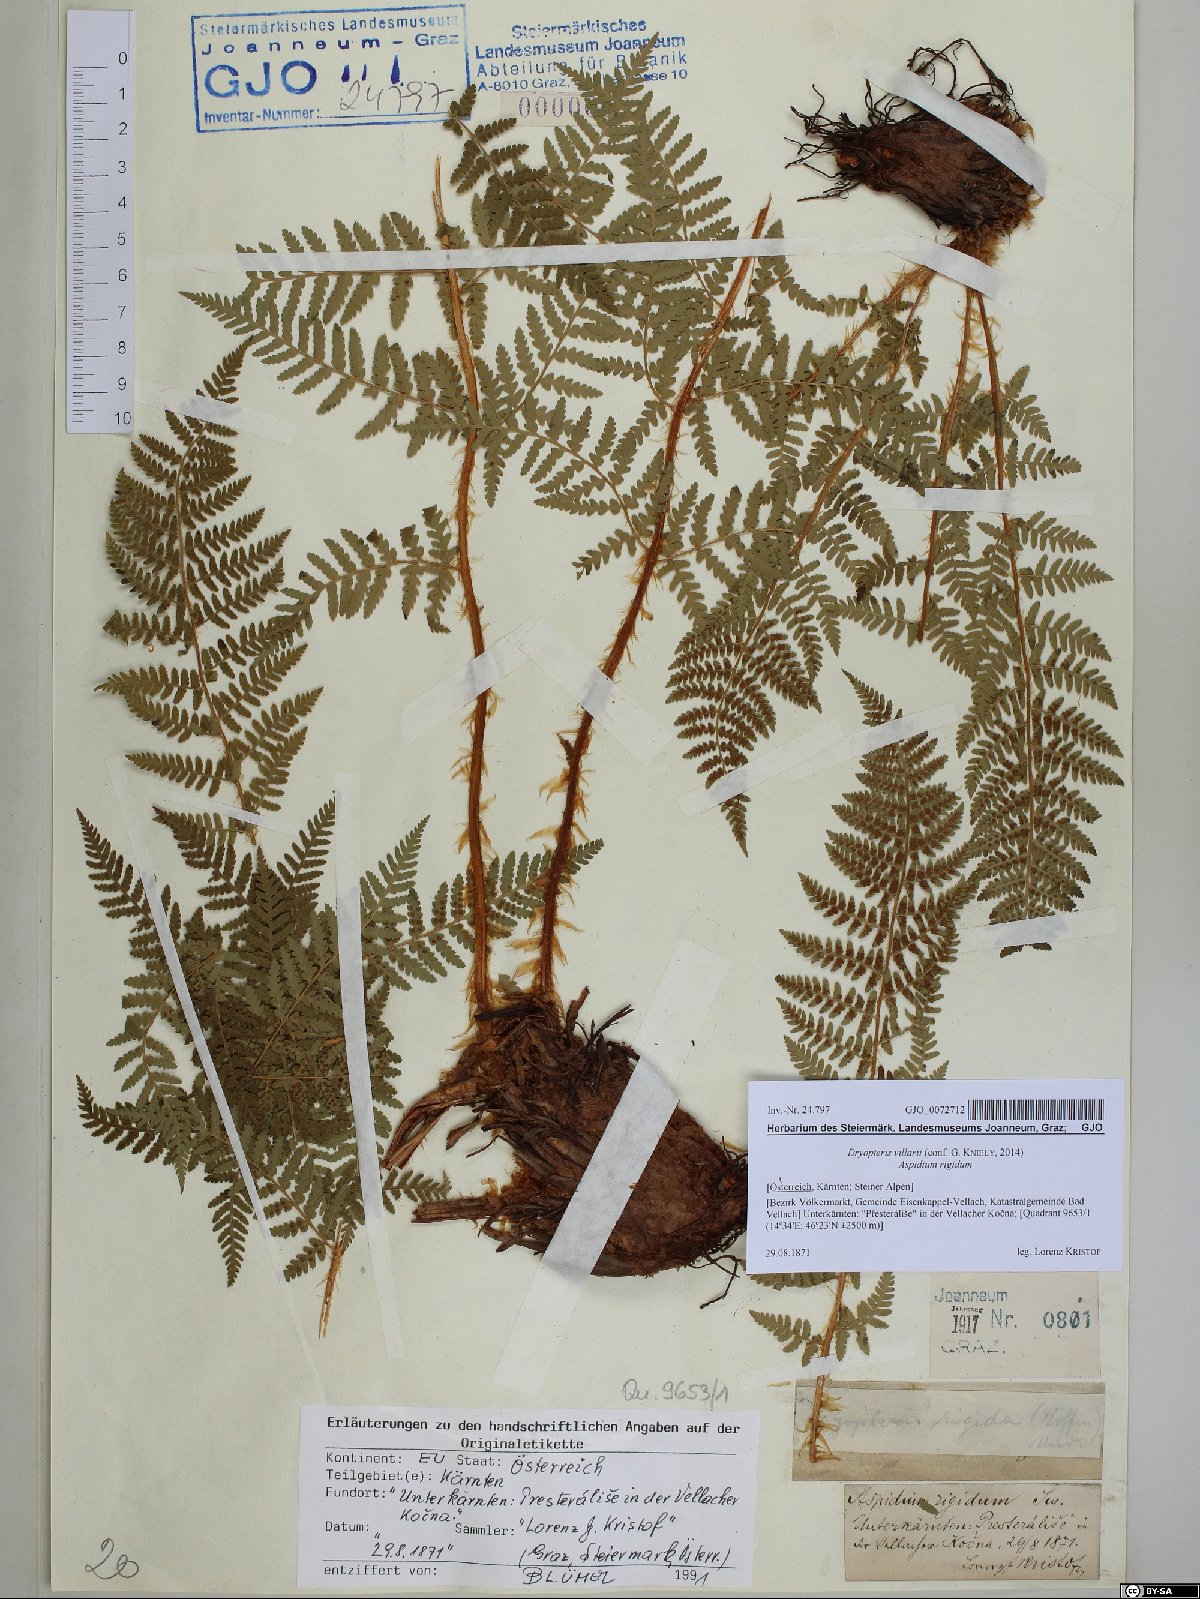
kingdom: Plantae
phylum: Tracheophyta
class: Polypodiopsida
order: Polypodiales
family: Dryopteridaceae
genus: Dryopteris
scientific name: Dryopteris villarii
